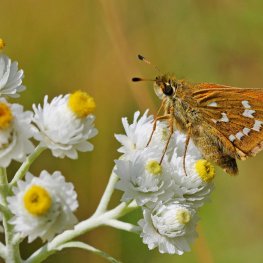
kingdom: Animalia
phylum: Arthropoda
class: Insecta
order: Lepidoptera
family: Hesperiidae
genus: Hesperia
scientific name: Hesperia comma
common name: Common Branded Skipper
